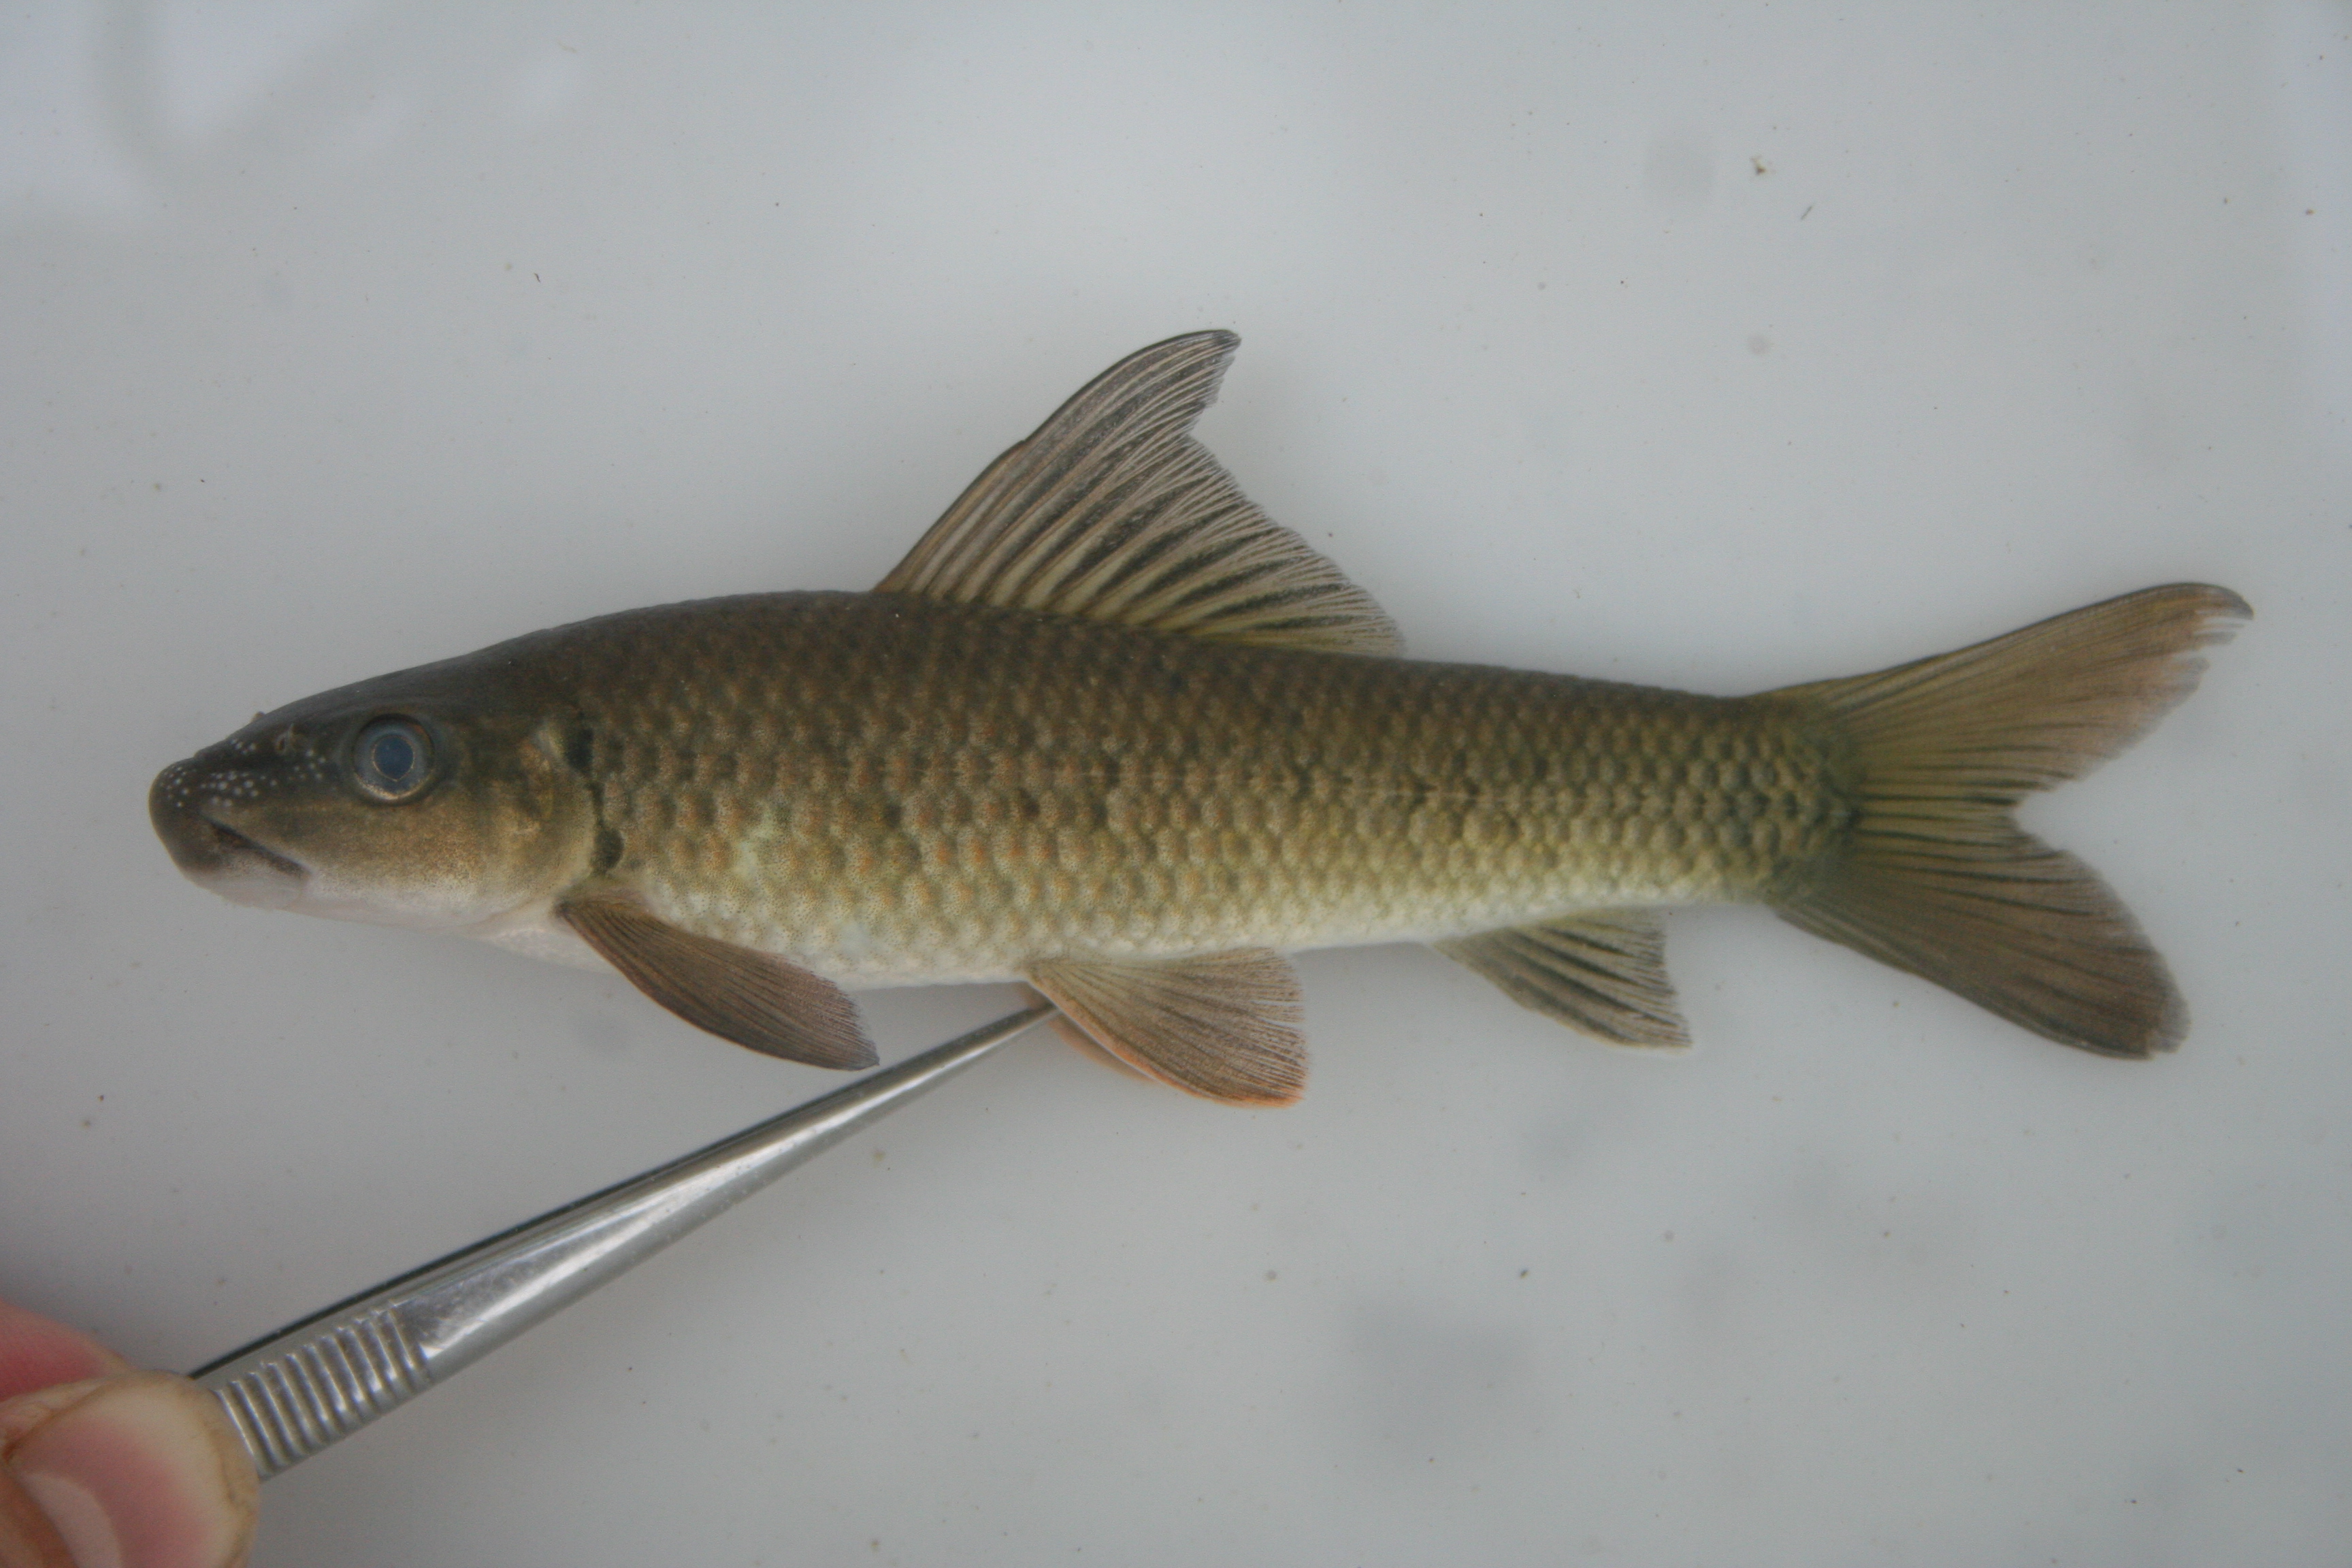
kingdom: Animalia
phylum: Chordata
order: Cypriniformes
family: Cyprinidae
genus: Labeo
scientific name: Labeo
